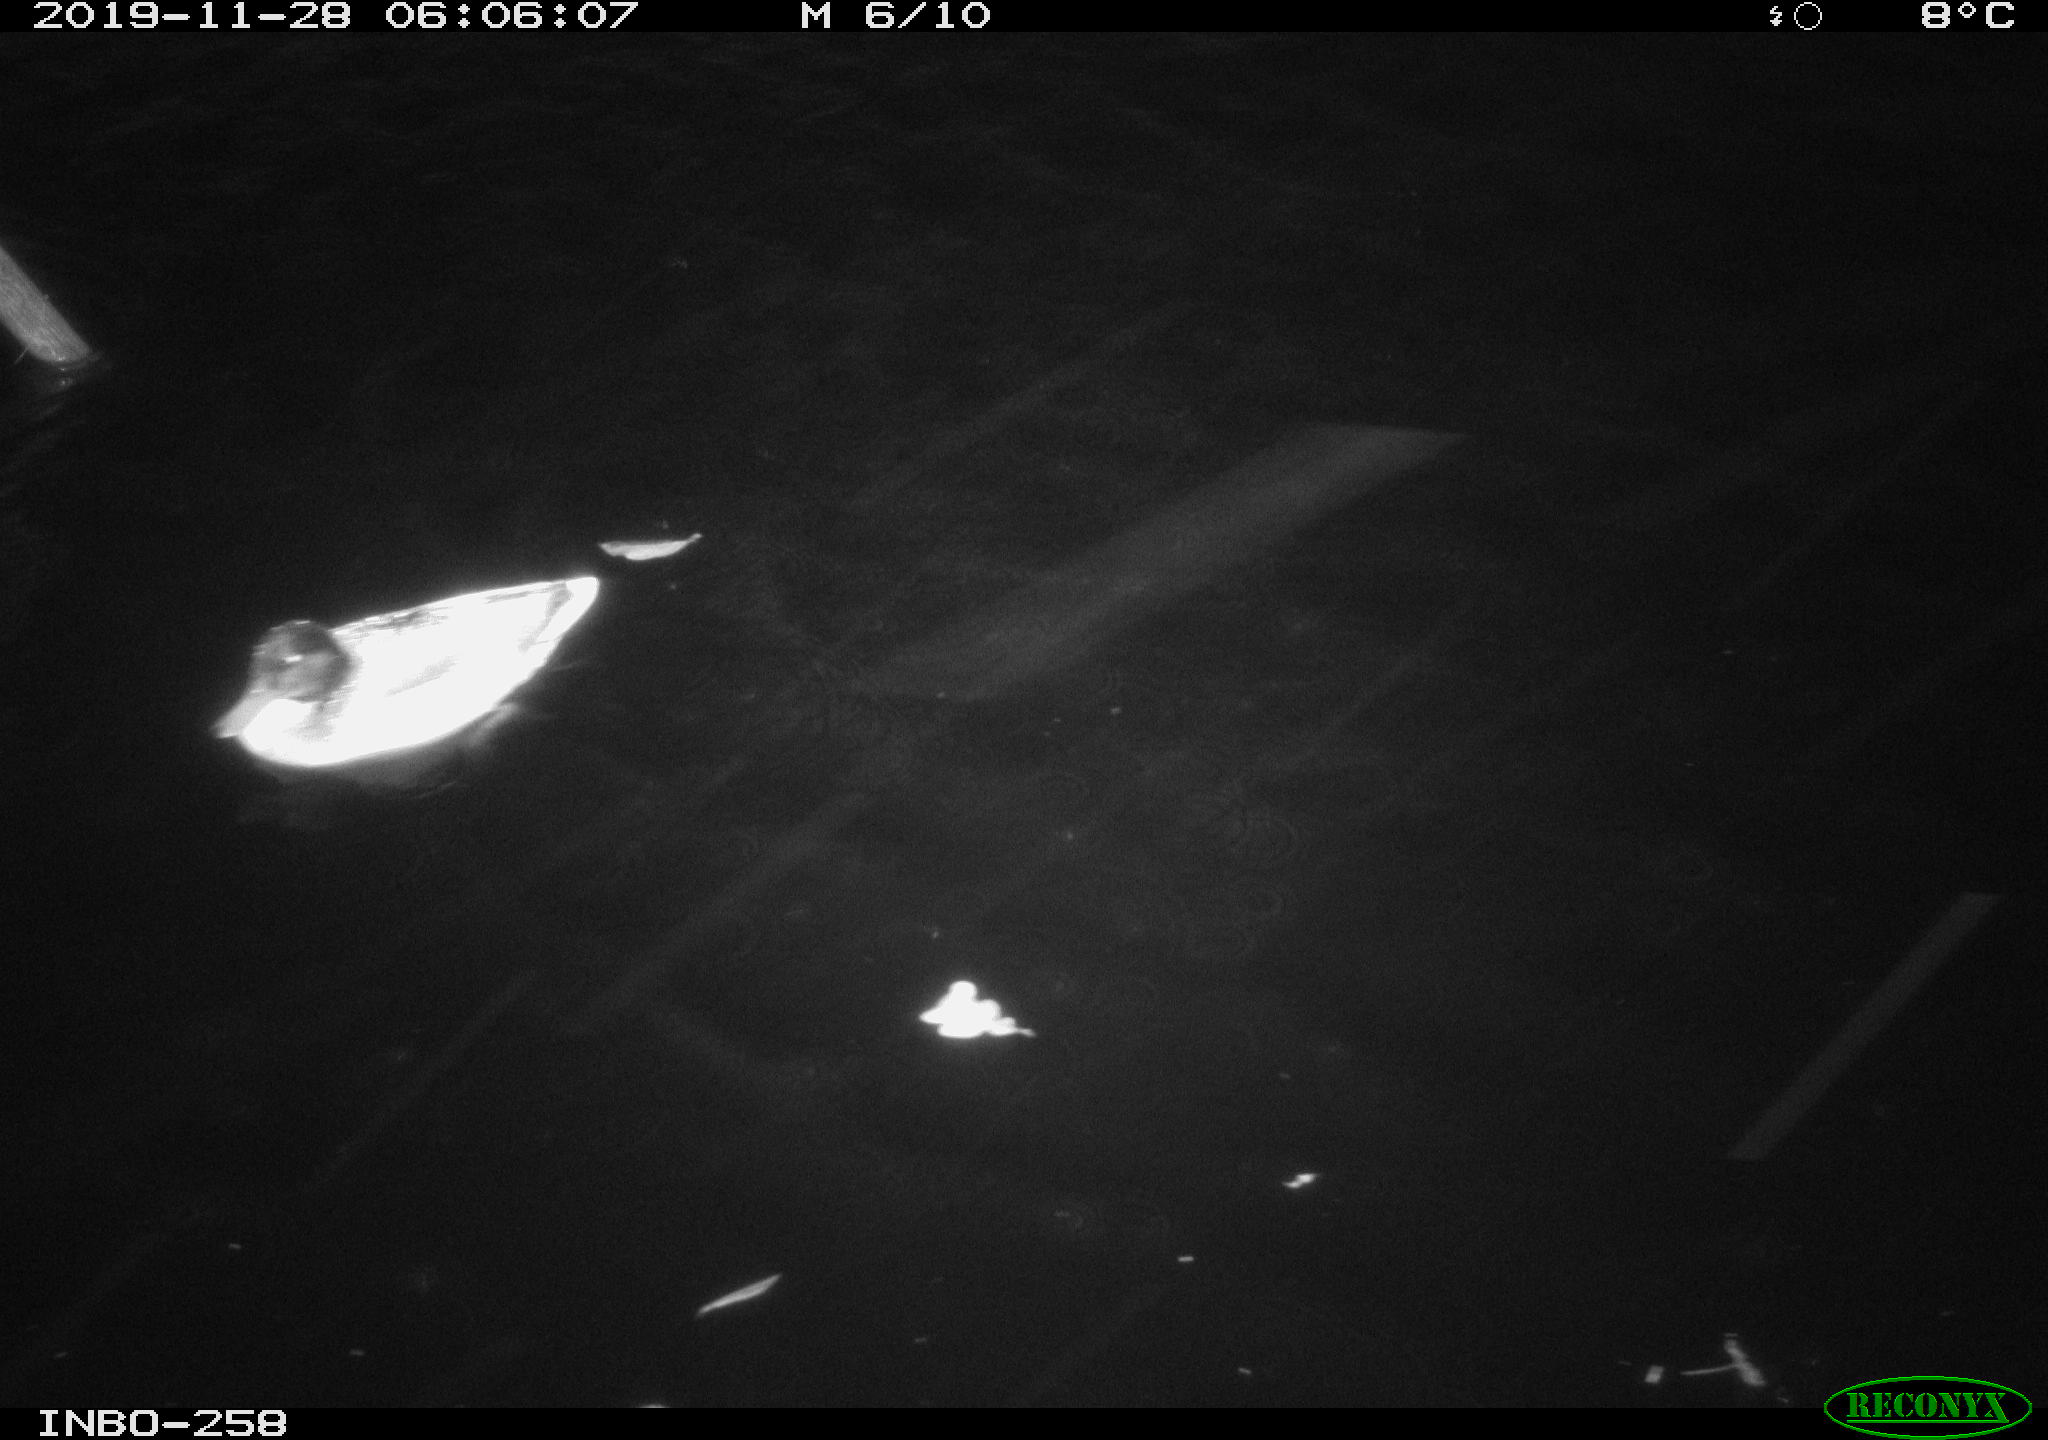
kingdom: Animalia
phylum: Chordata
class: Aves
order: Anseriformes
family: Anatidae
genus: Anas
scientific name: Anas platyrhynchos
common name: Mallard
